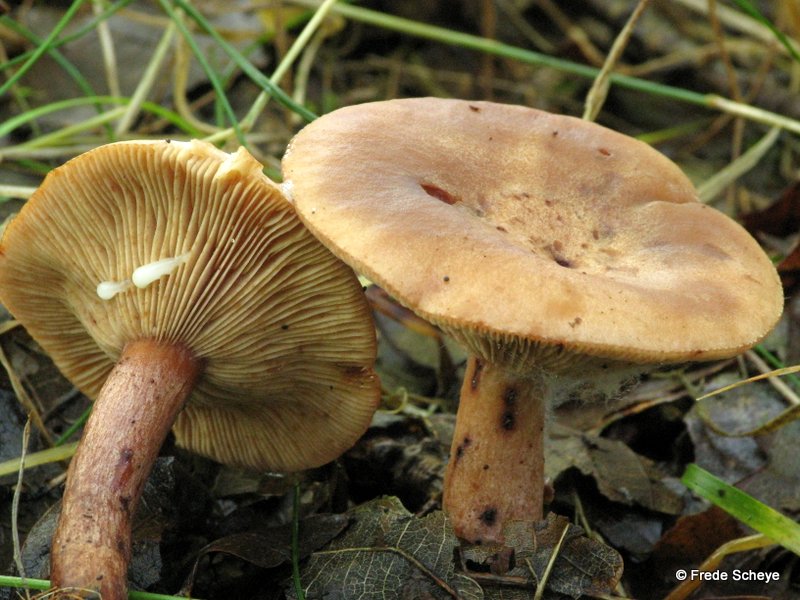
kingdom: Fungi
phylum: Basidiomycota
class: Agaricomycetes
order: Russulales
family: Russulaceae
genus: Lactarius
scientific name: Lactarius quietus
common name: ege-mælkehat
